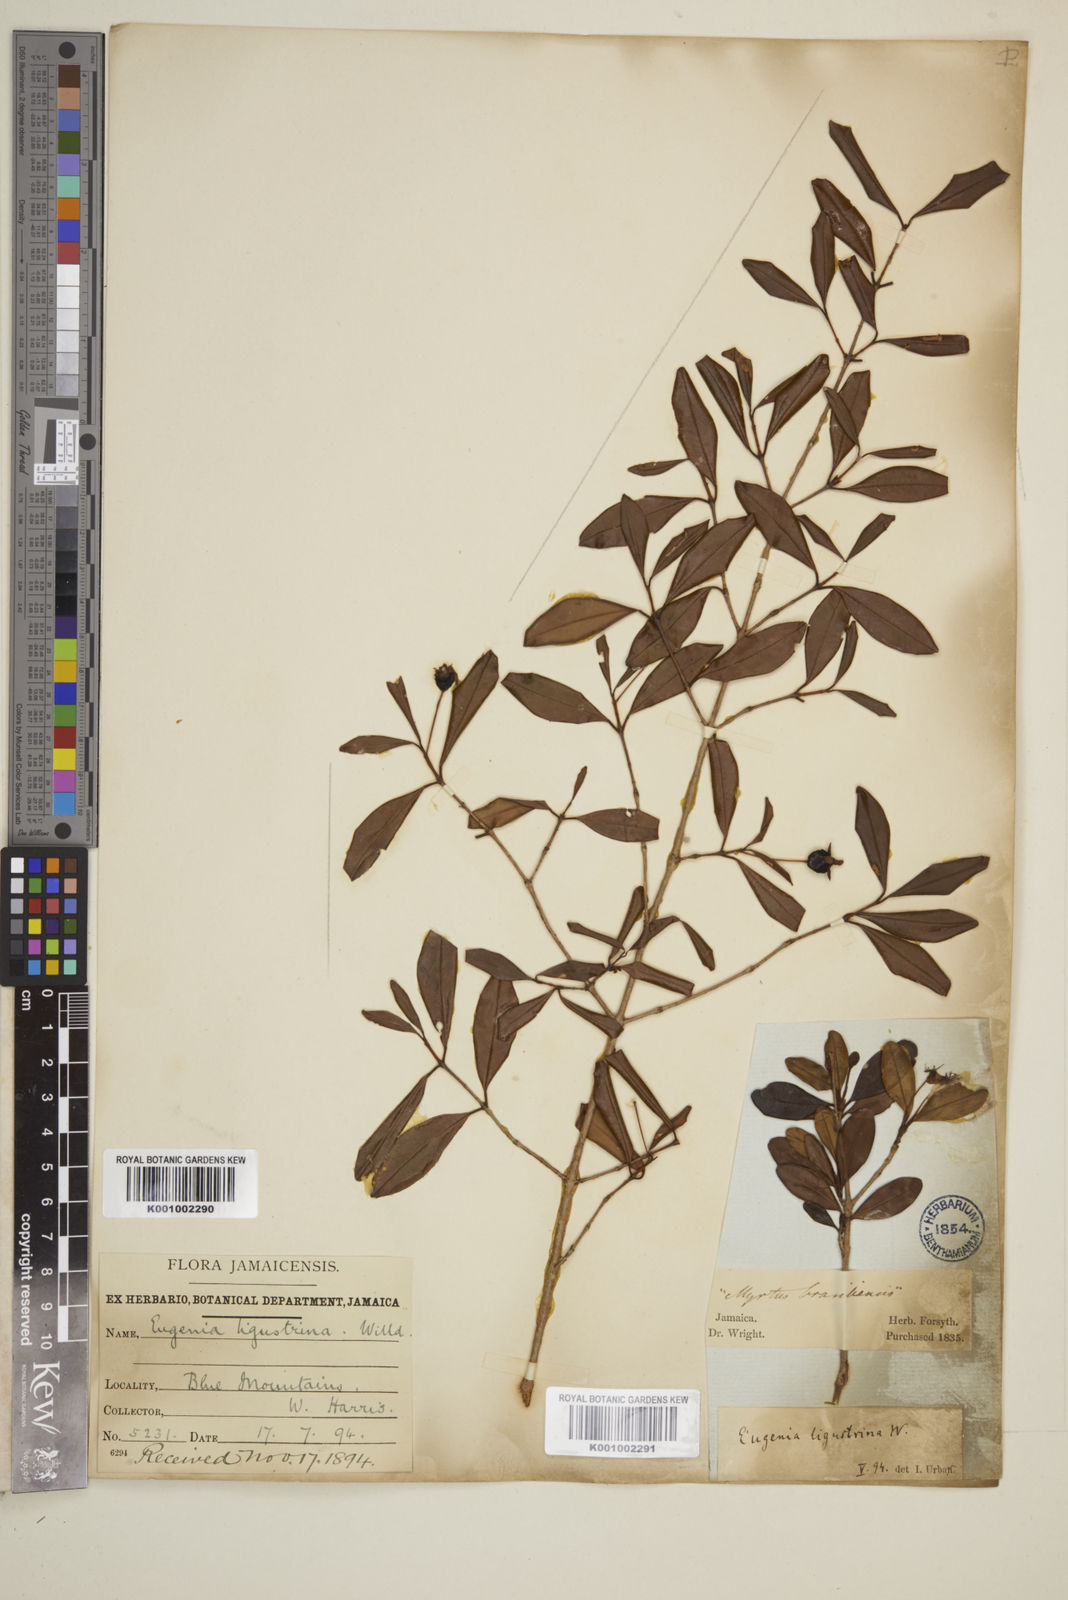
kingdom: Plantae
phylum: Tracheophyta
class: Magnoliopsida
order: Myrtales
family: Myrtaceae
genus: Eugenia
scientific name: Eugenia ligustrina
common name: Privet stopper
